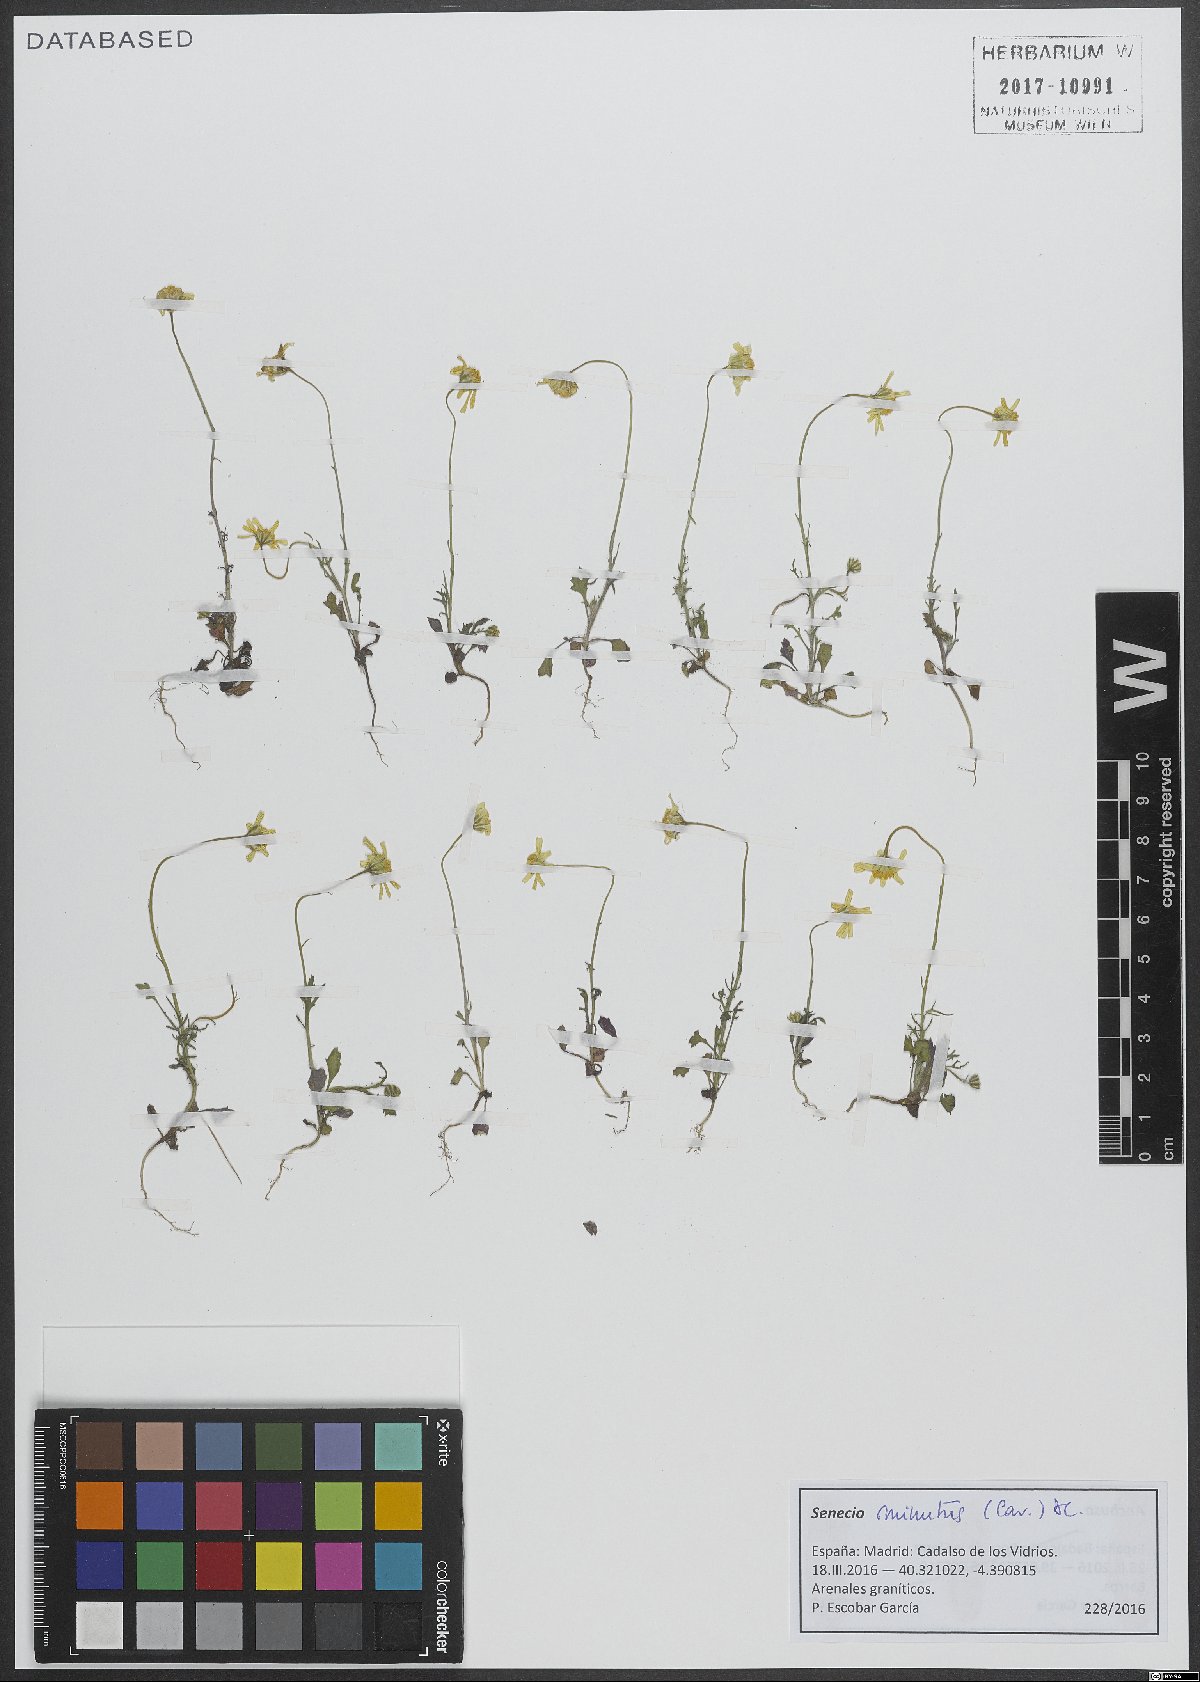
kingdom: Plantae
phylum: Tracheophyta
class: Magnoliopsida
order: Asterales
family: Asteraceae
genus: Jacobaea
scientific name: Jacobaea minuta
